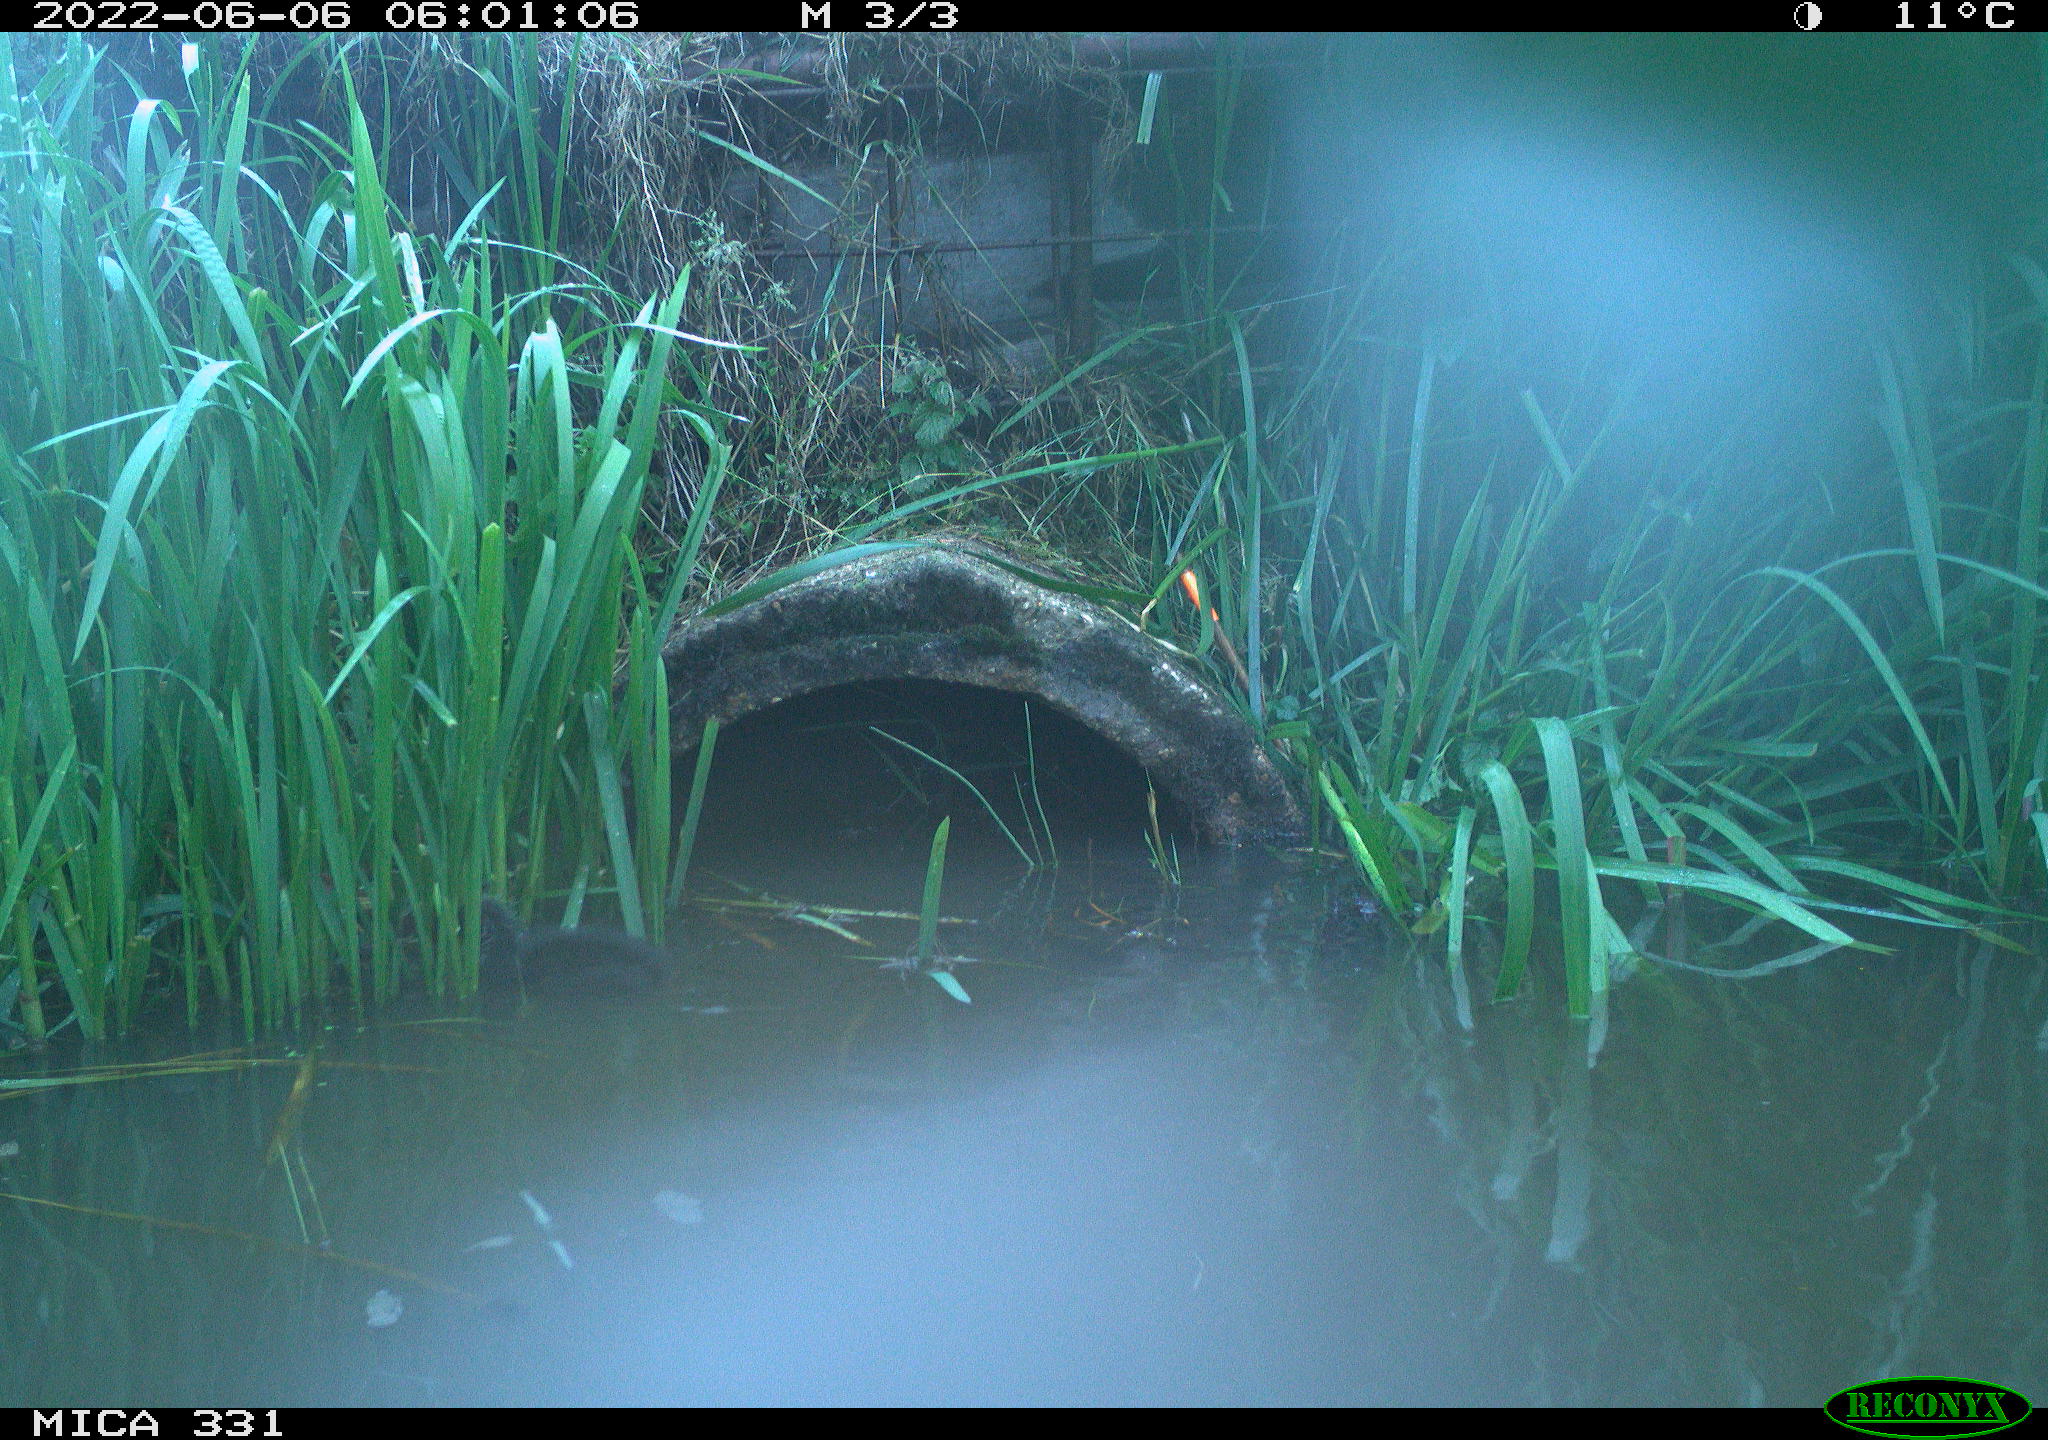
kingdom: Animalia
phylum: Chordata
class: Aves
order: Gruiformes
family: Rallidae
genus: Fulica
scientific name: Fulica atra
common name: Eurasian coot
